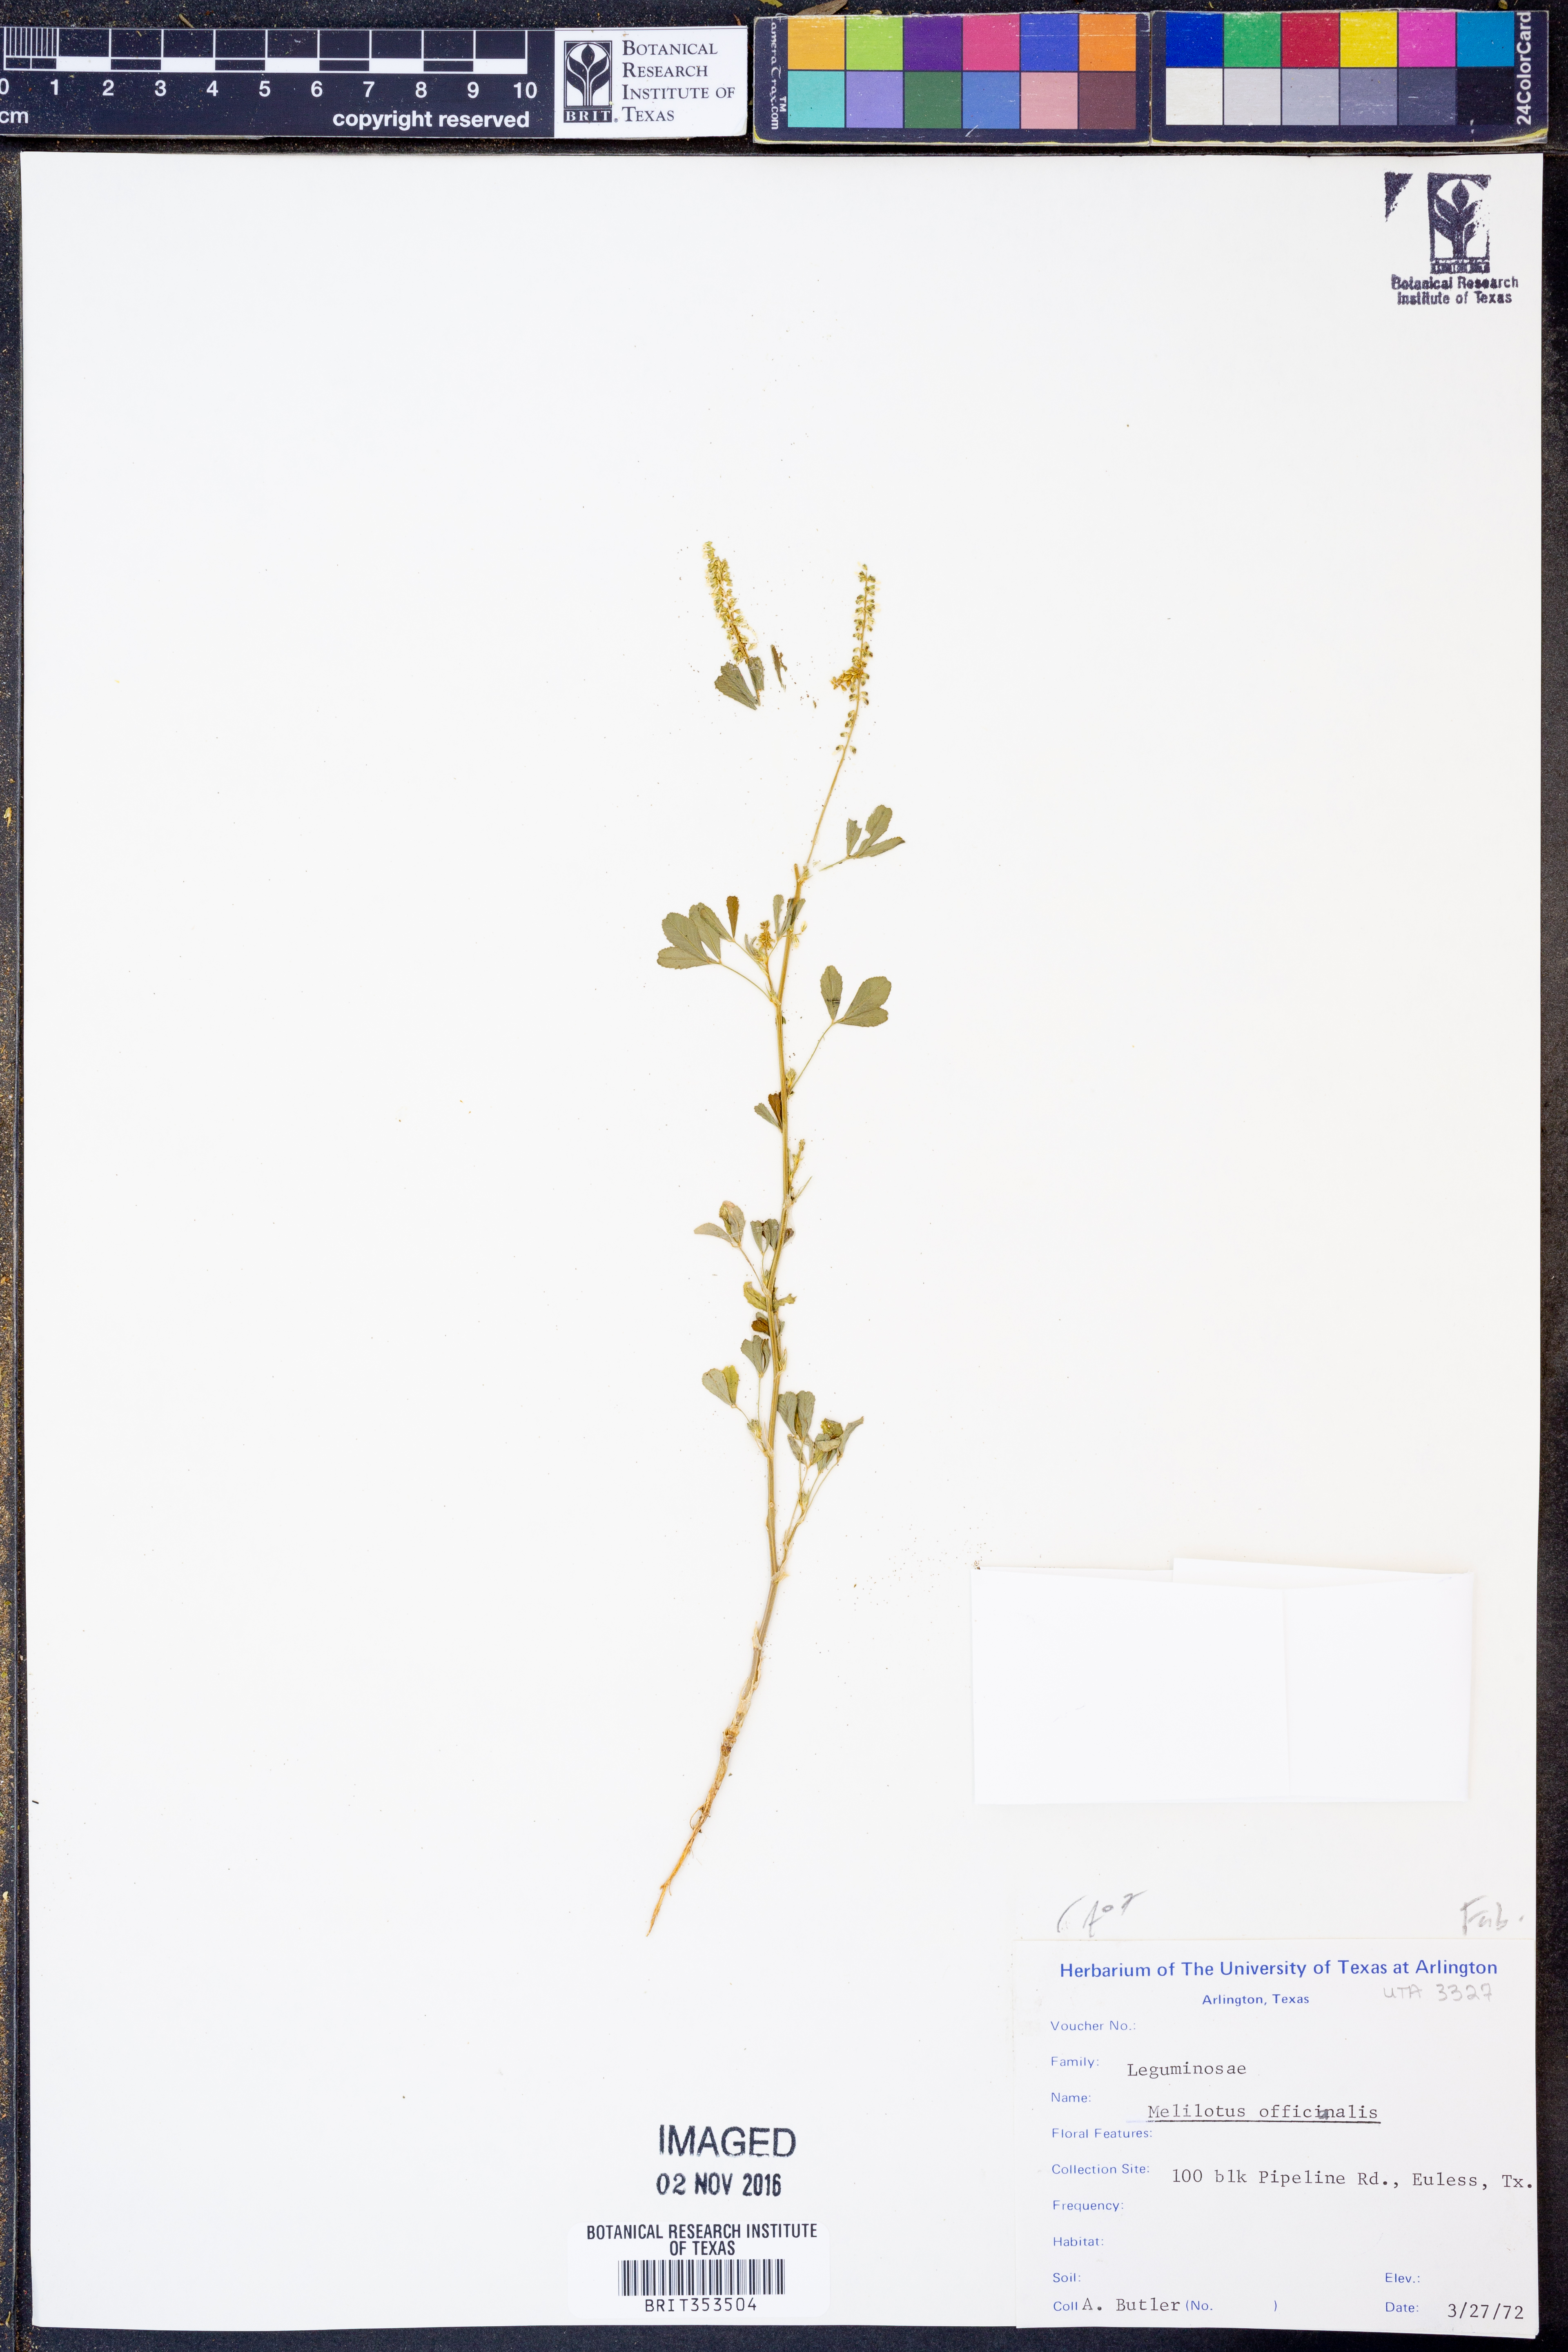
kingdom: Plantae
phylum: Tracheophyta
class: Magnoliopsida
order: Fabales
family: Fabaceae
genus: Melilotus
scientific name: Melilotus officinalis
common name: Sweetclover
